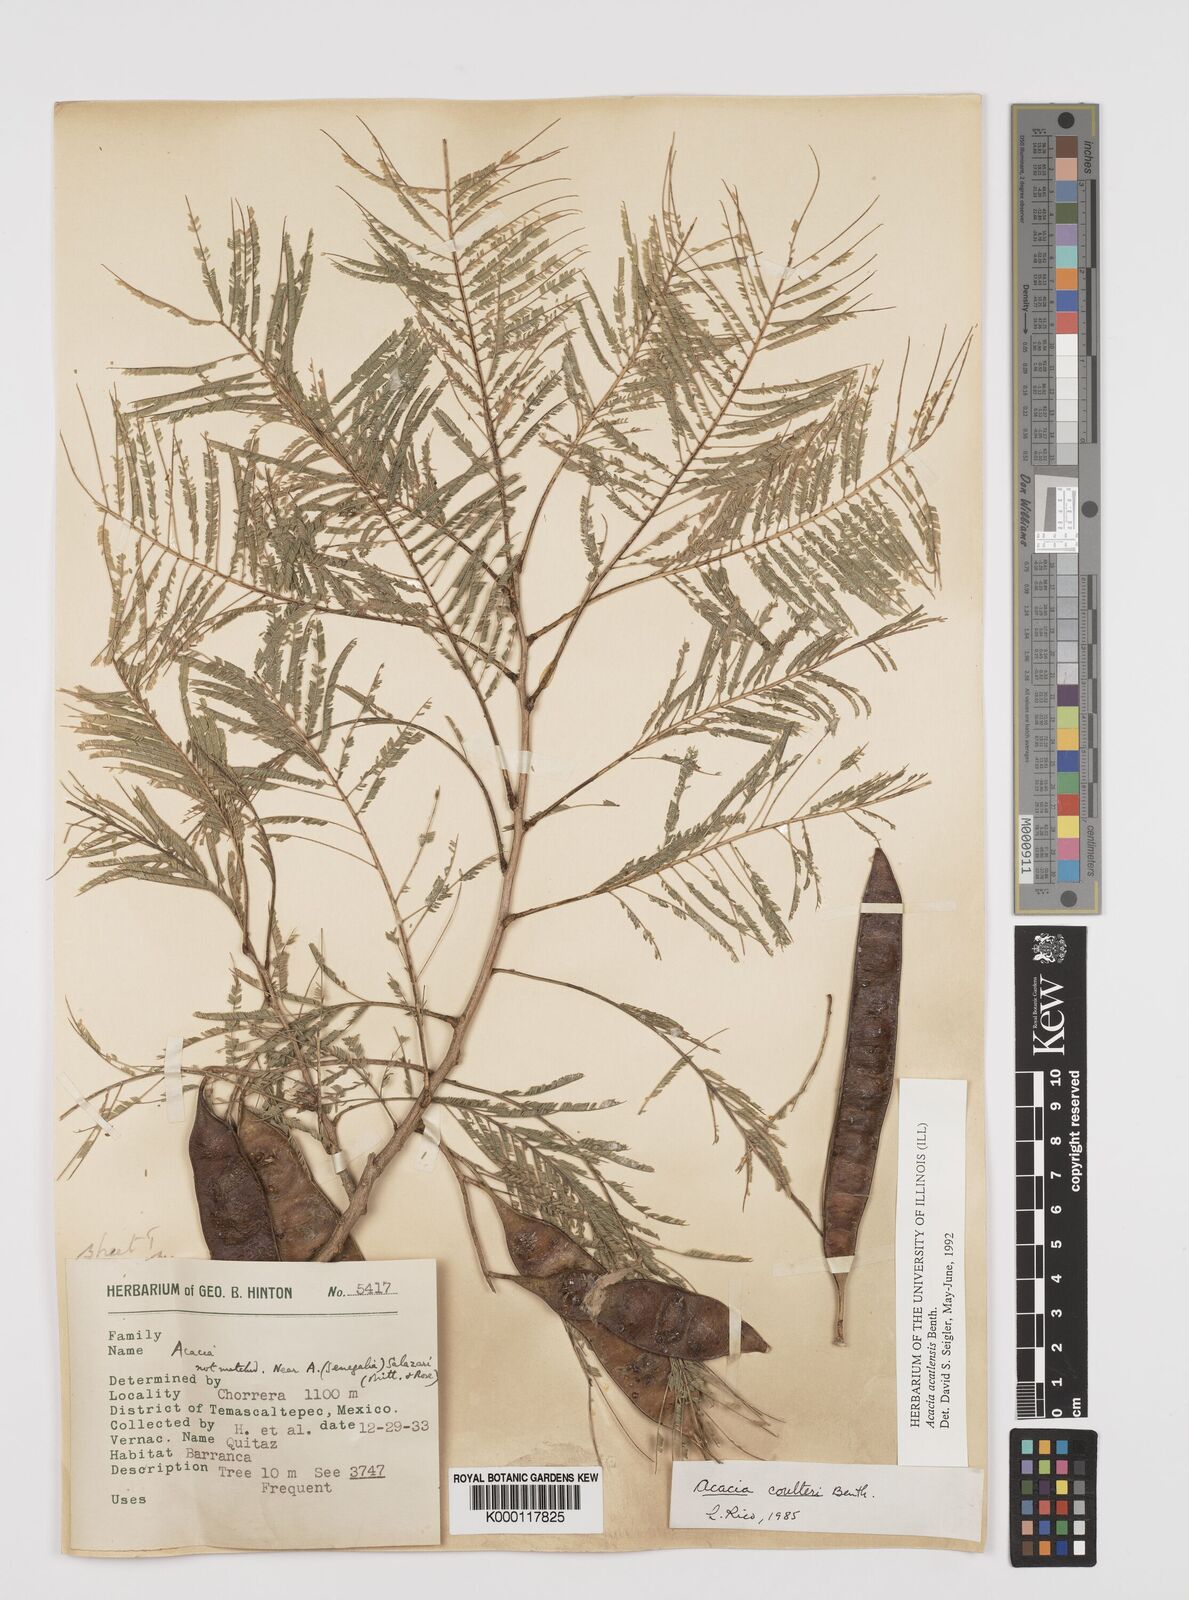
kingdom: Plantae
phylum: Tracheophyta
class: Magnoliopsida
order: Fabales
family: Fabaceae
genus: Mariosousa
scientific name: Mariosousa acatlensis
